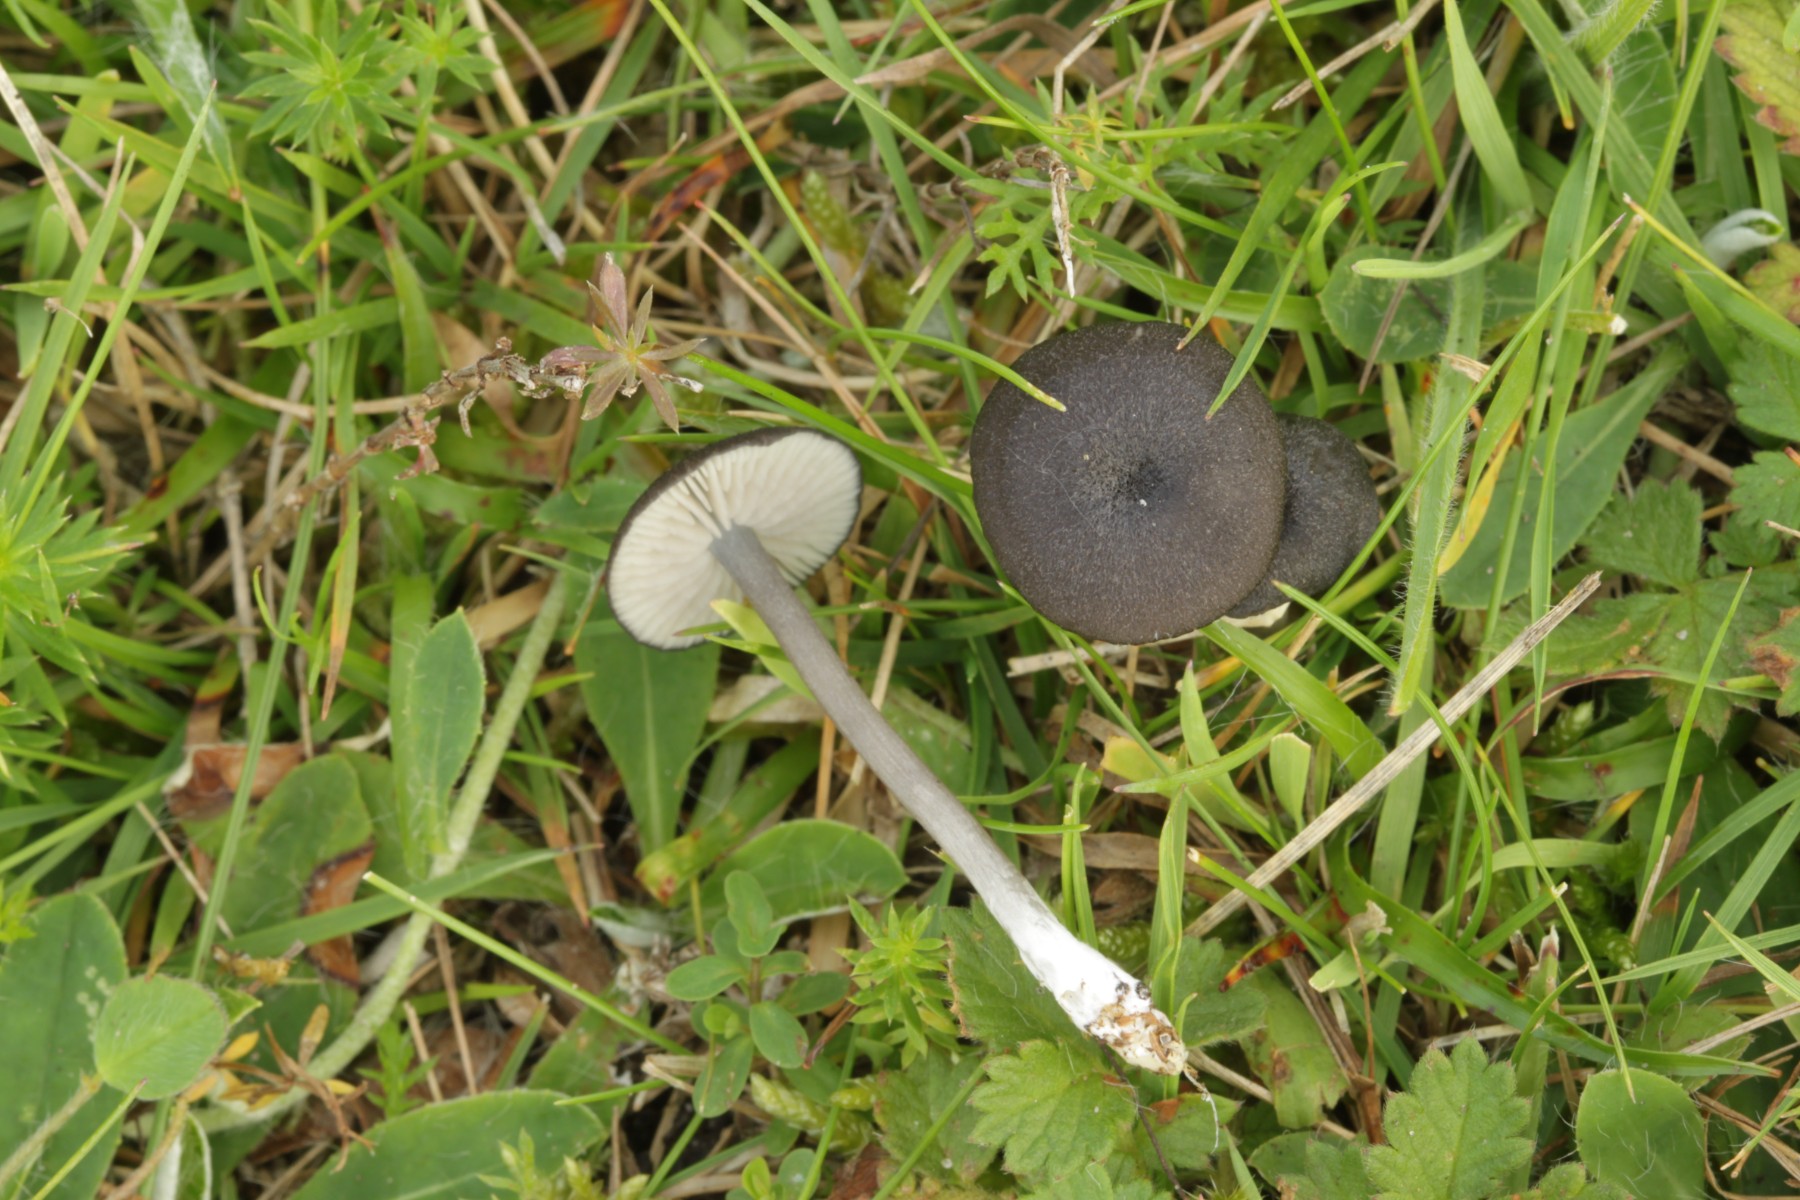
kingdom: Fungi
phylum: Basidiomycota
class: Agaricomycetes
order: Agaricales
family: Entolomataceae
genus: Entoloma
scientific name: Entoloma chalybeum
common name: blåbladet rødblad
